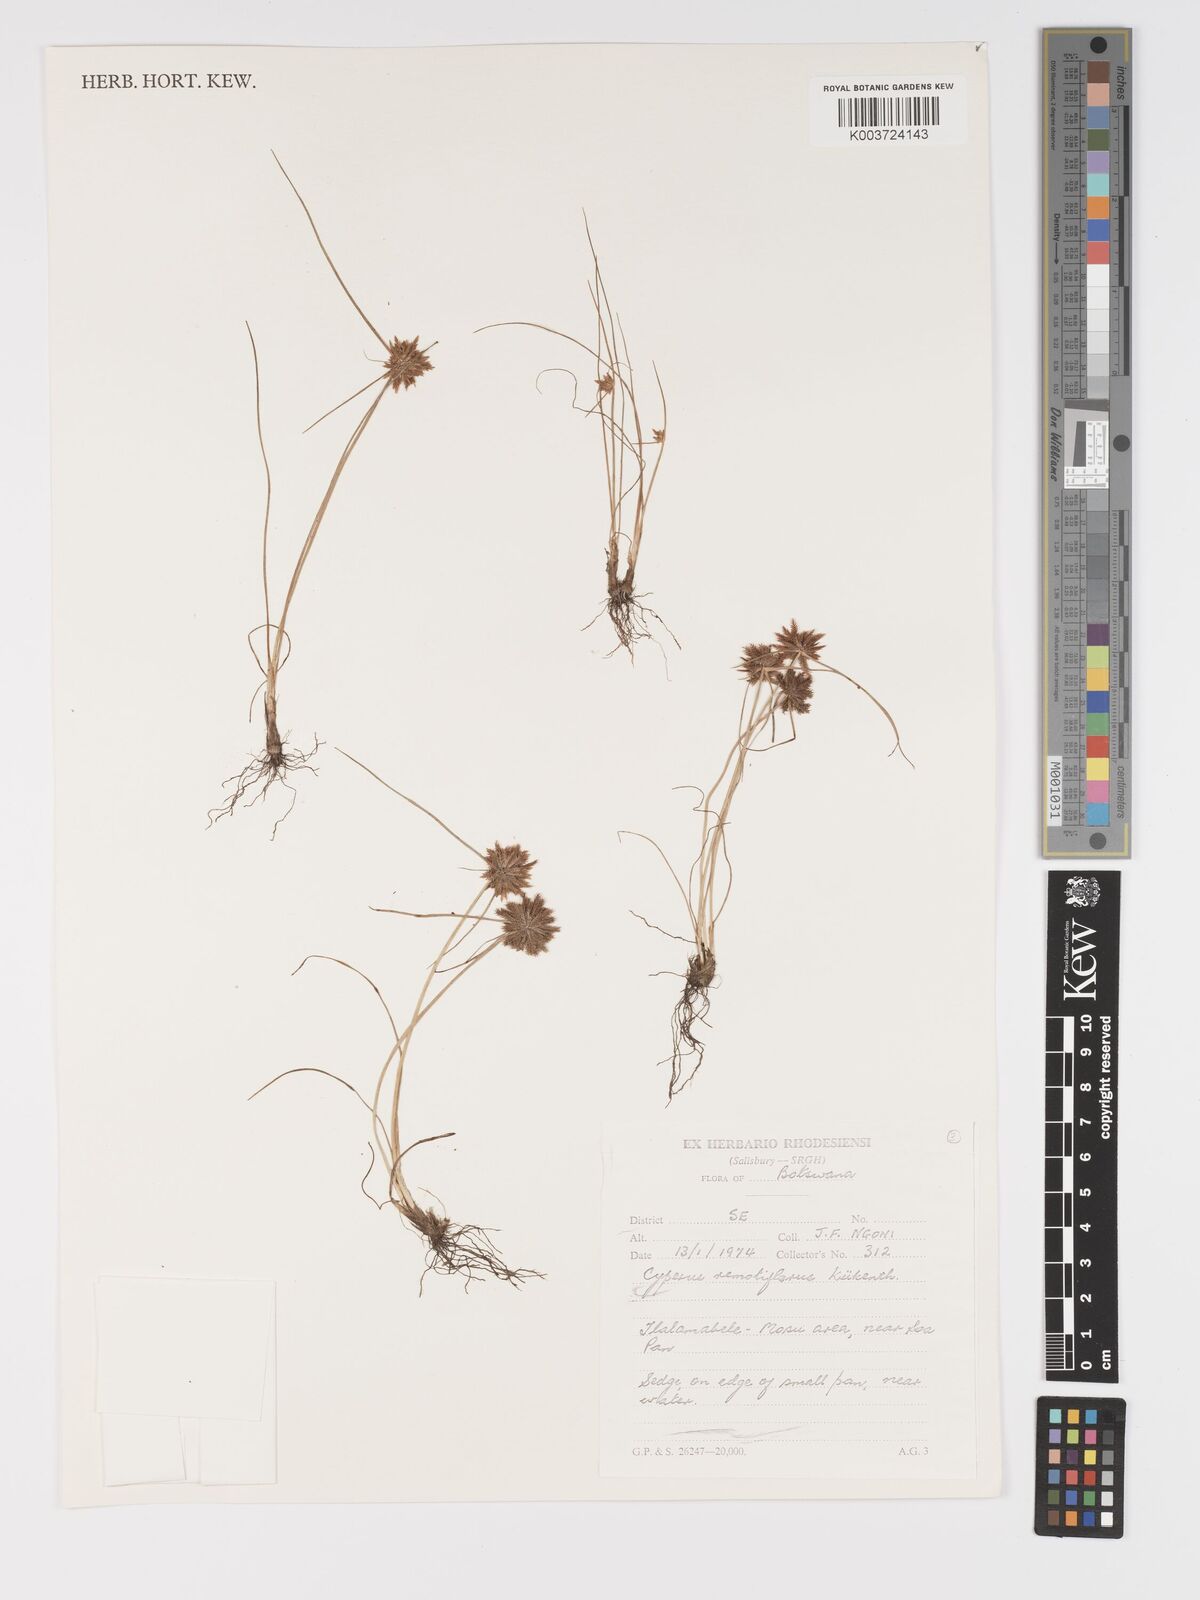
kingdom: Plantae
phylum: Tracheophyta
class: Liliopsida
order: Poales
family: Cyperaceae
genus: Cyperus
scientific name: Cyperus remotiflorus
